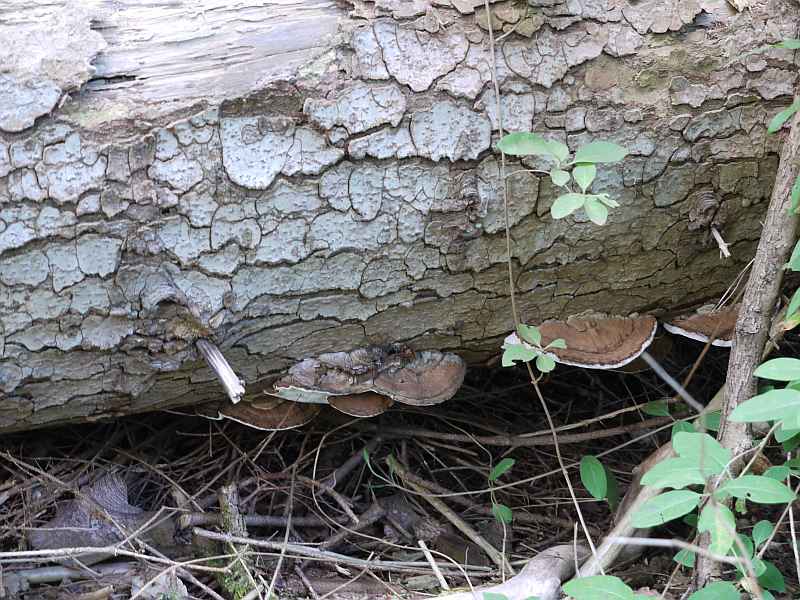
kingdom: Fungi
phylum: Basidiomycota
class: Agaricomycetes
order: Polyporales
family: Polyporaceae
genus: Ganoderma
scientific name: Ganoderma applanatum
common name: flad lakporesvamp
